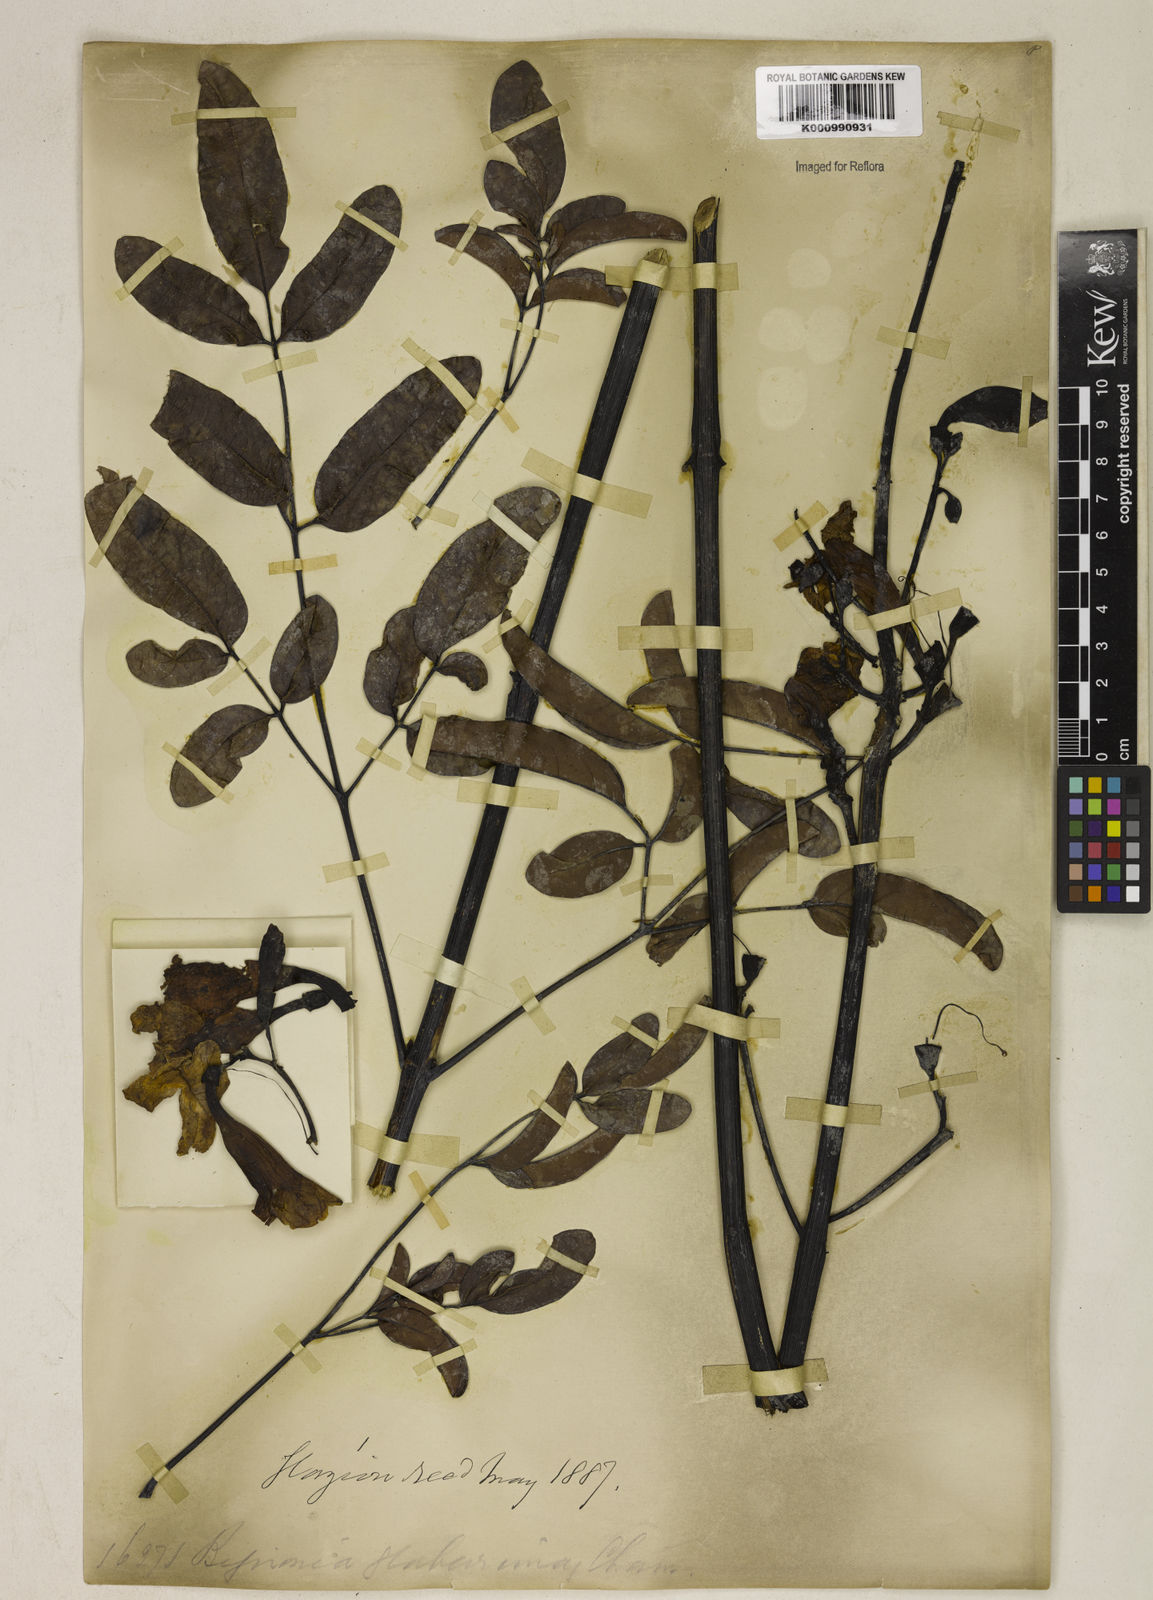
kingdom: Plantae
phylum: Tracheophyta
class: Magnoliopsida
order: Lamiales
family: Bignoniaceae
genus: Adenocalymma
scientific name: Adenocalymma pedunculatum
